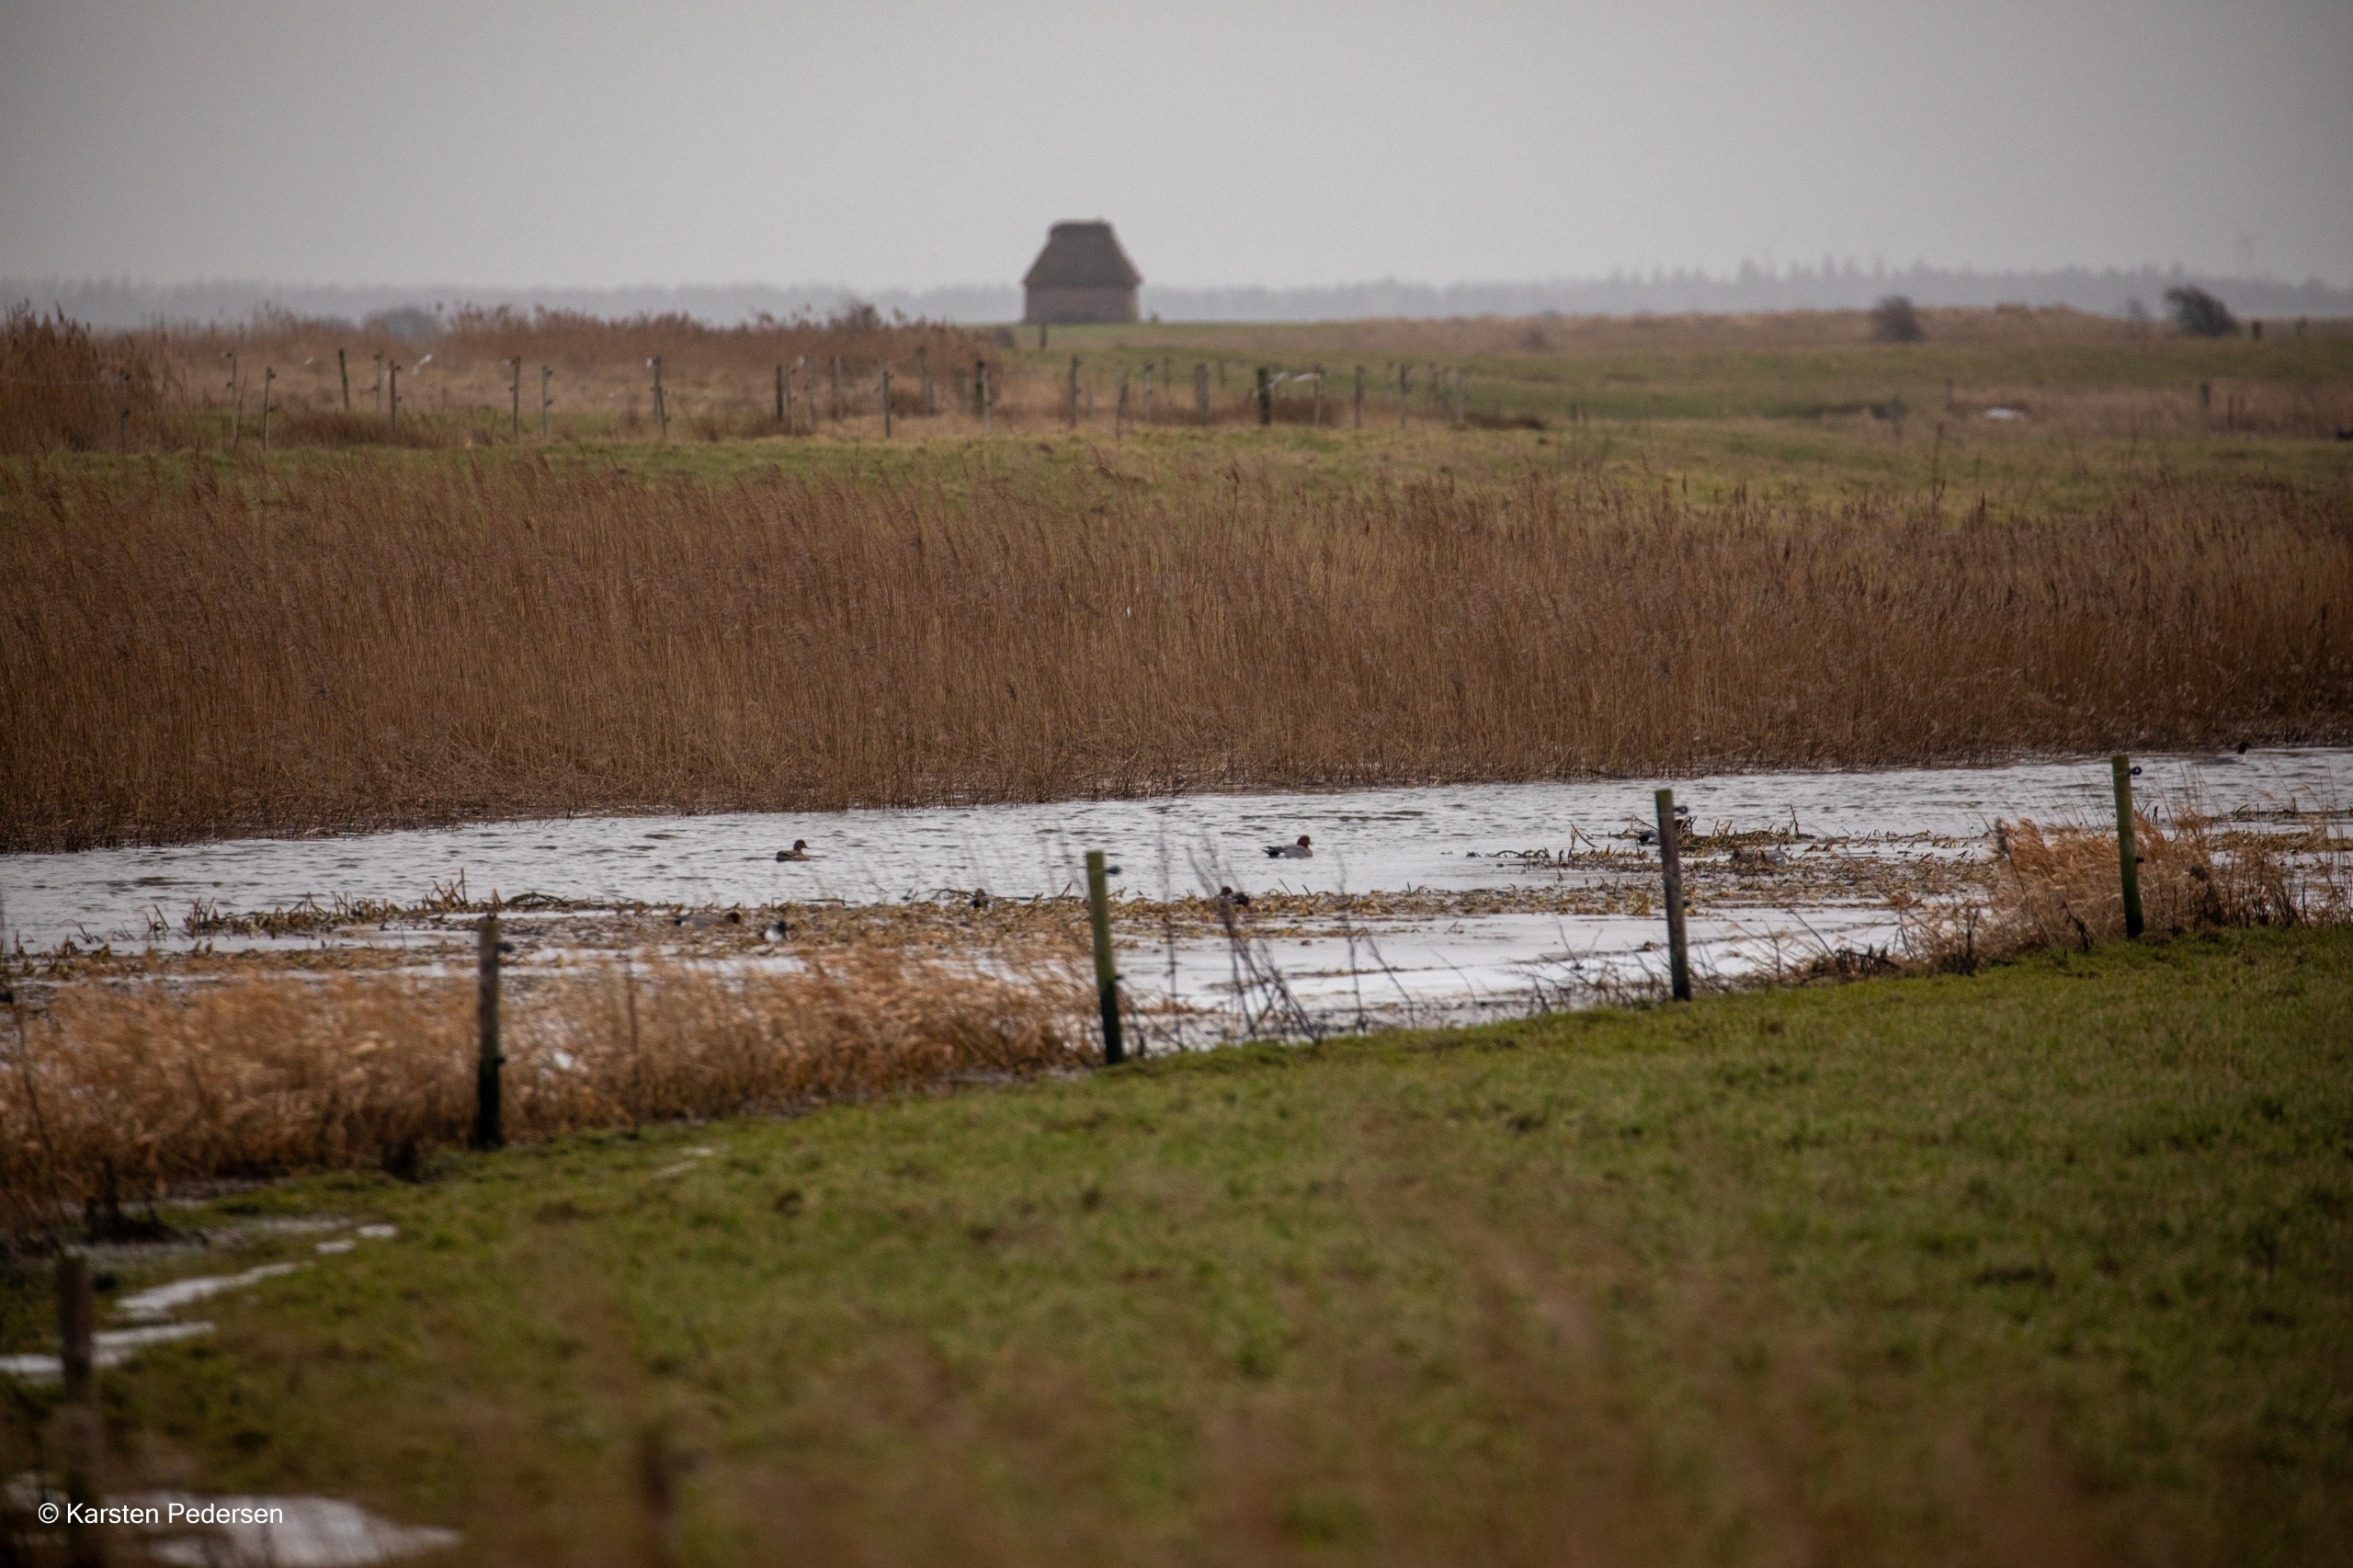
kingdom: Animalia
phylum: Chordata
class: Aves
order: Anseriformes
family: Anatidae
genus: Mareca
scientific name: Mareca penelope
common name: Pibeand
